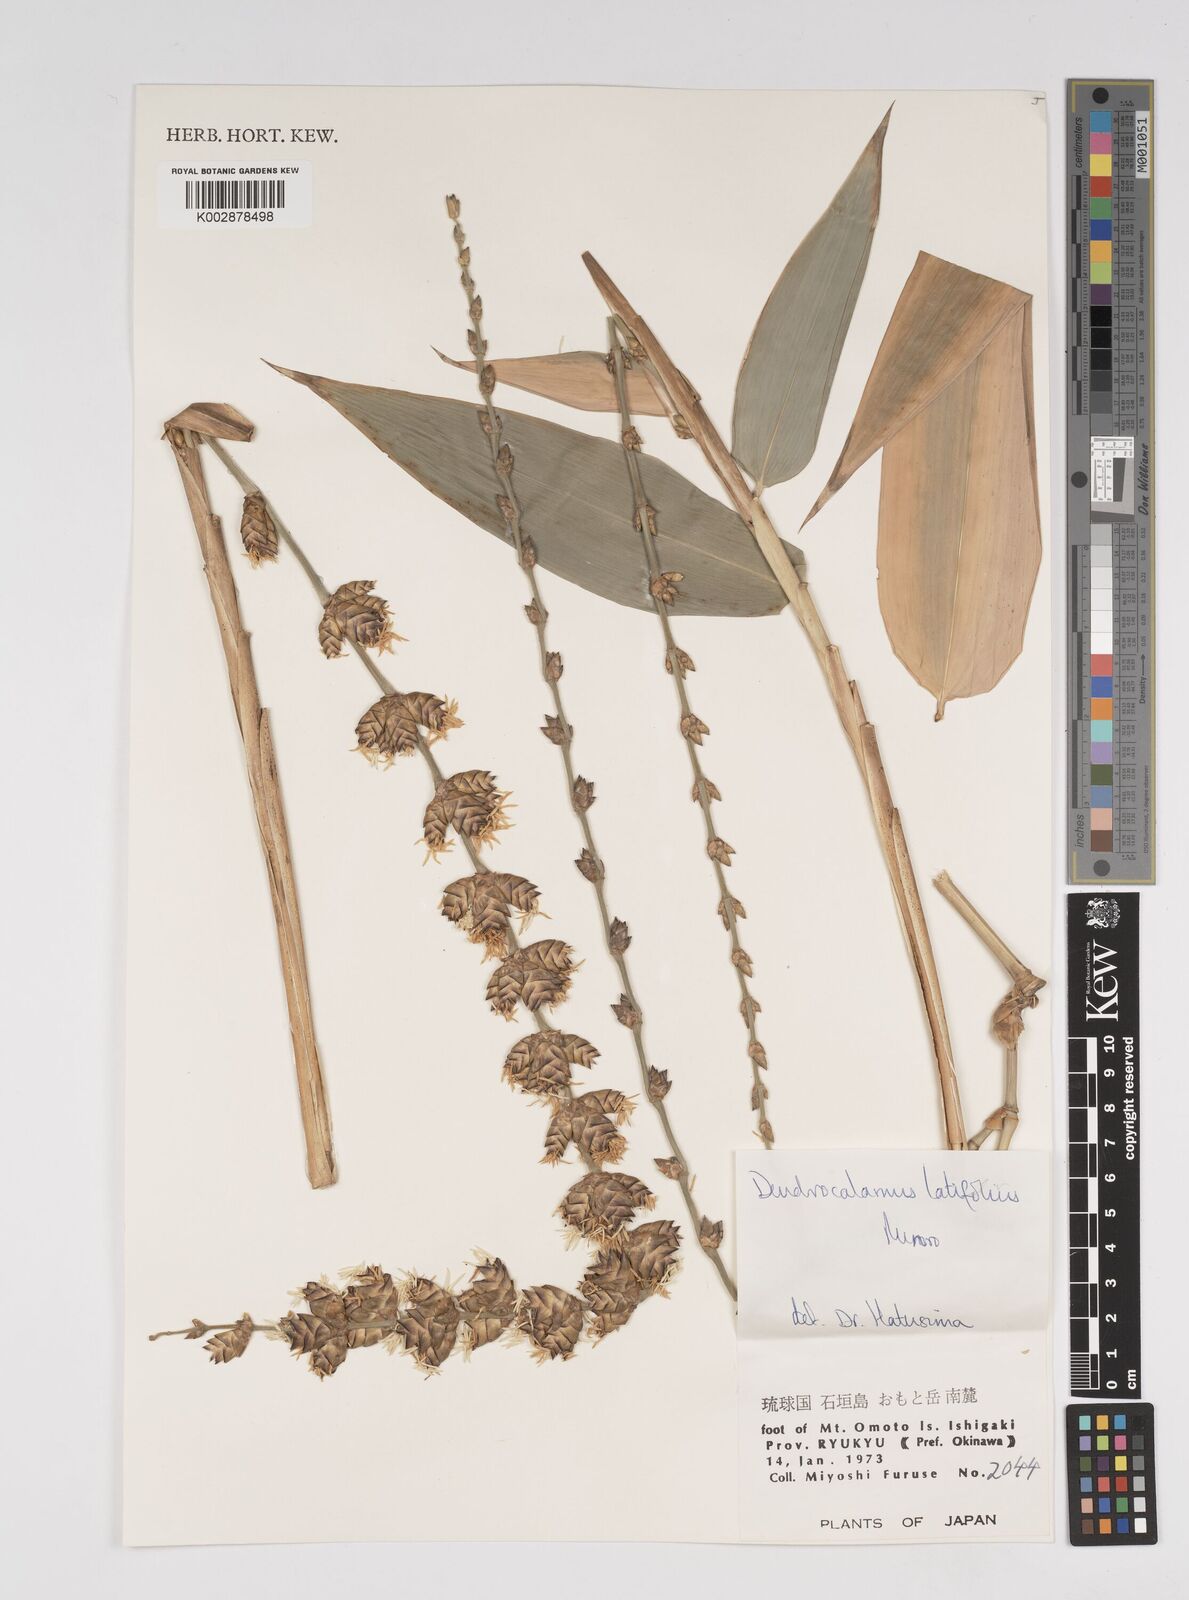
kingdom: Plantae
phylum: Tracheophyta
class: Liliopsida
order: Poales
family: Poaceae
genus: Dendrocalamus
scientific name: Dendrocalamus latiflorus
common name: Giant bamboo
